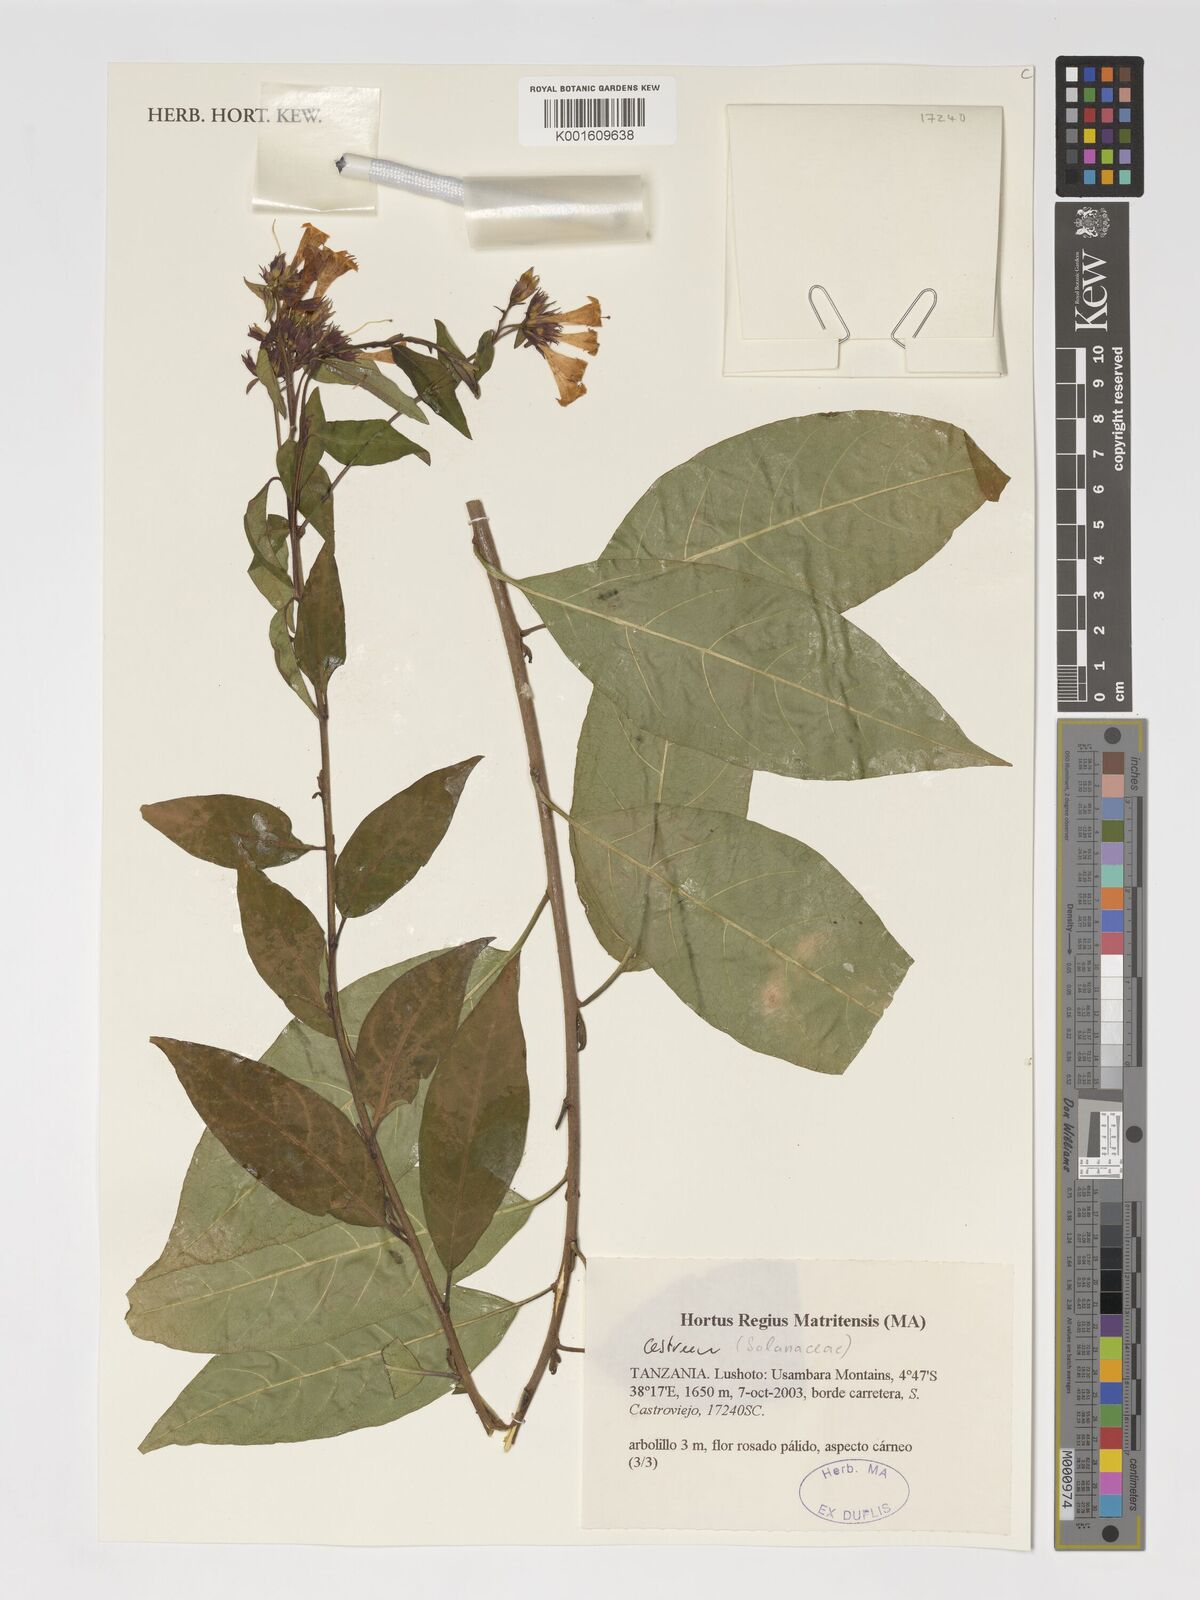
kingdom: Plantae
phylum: Tracheophyta
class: Magnoliopsida
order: Solanales
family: Solanaceae
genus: Cestrum
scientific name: Cestrum
